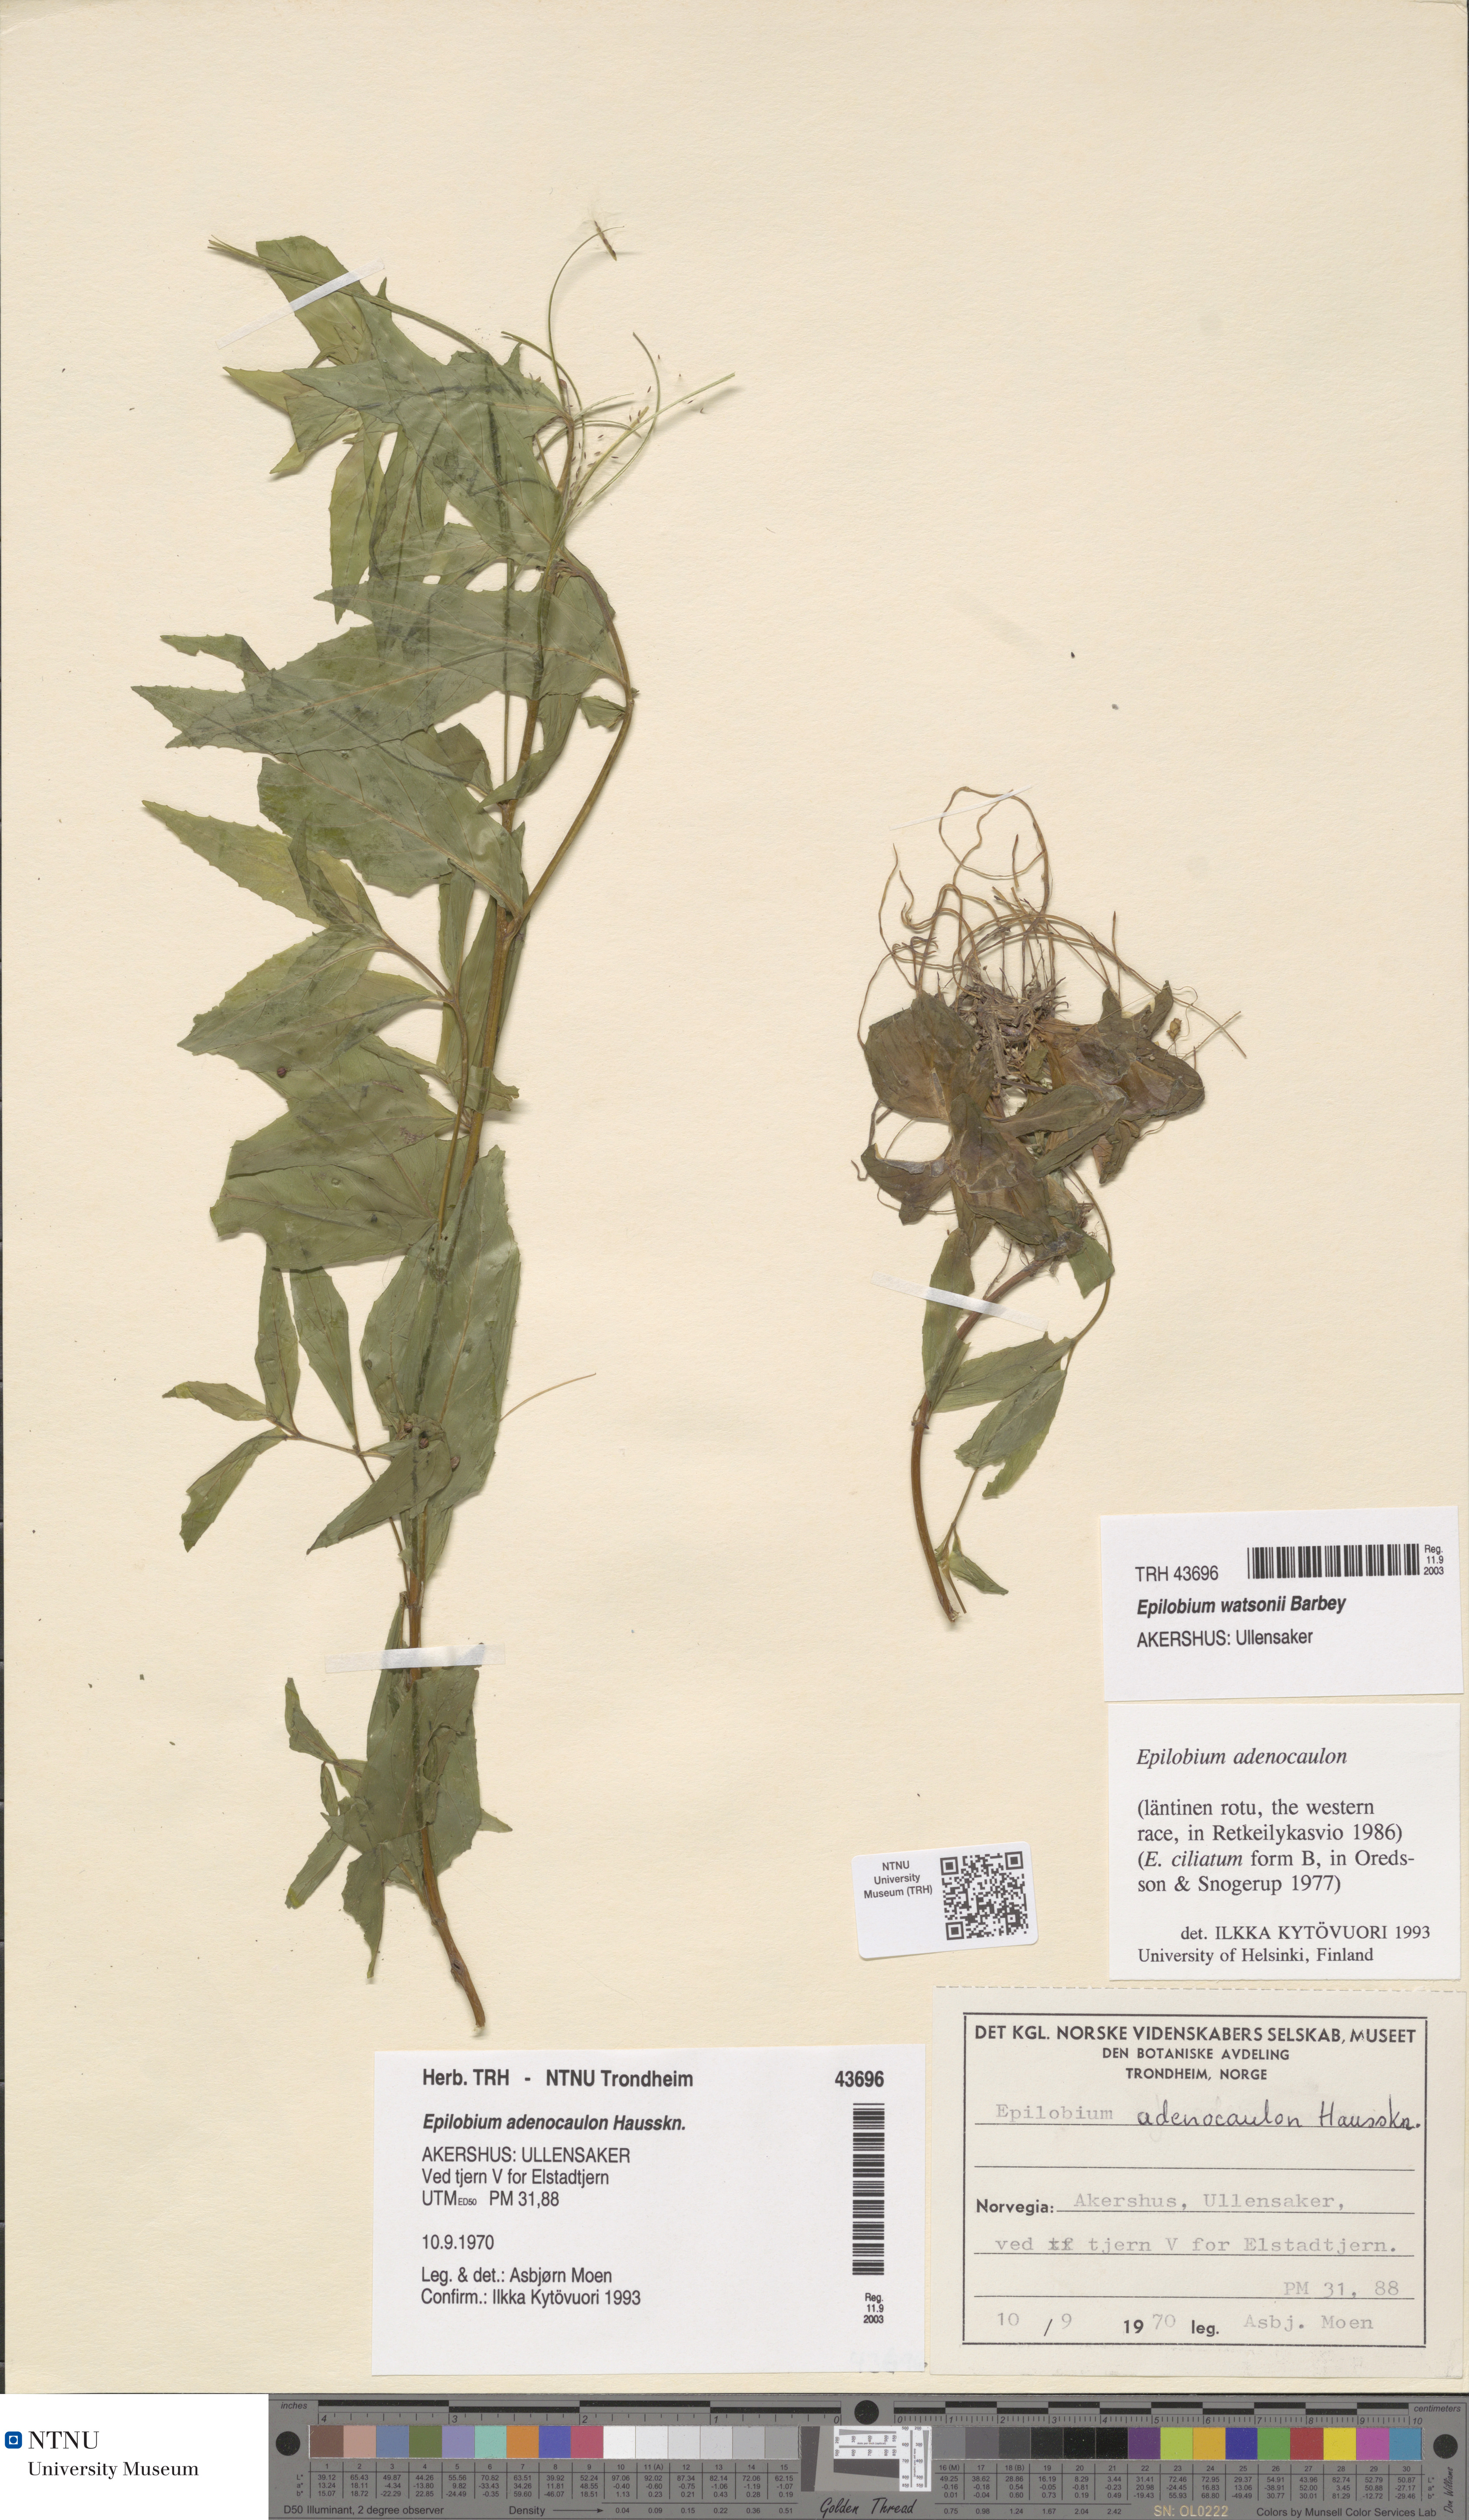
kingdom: Plantae
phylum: Tracheophyta
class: Magnoliopsida
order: Myrtales
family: Onagraceae
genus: Epilobium
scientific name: Epilobium ciliatum
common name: American willowherb
